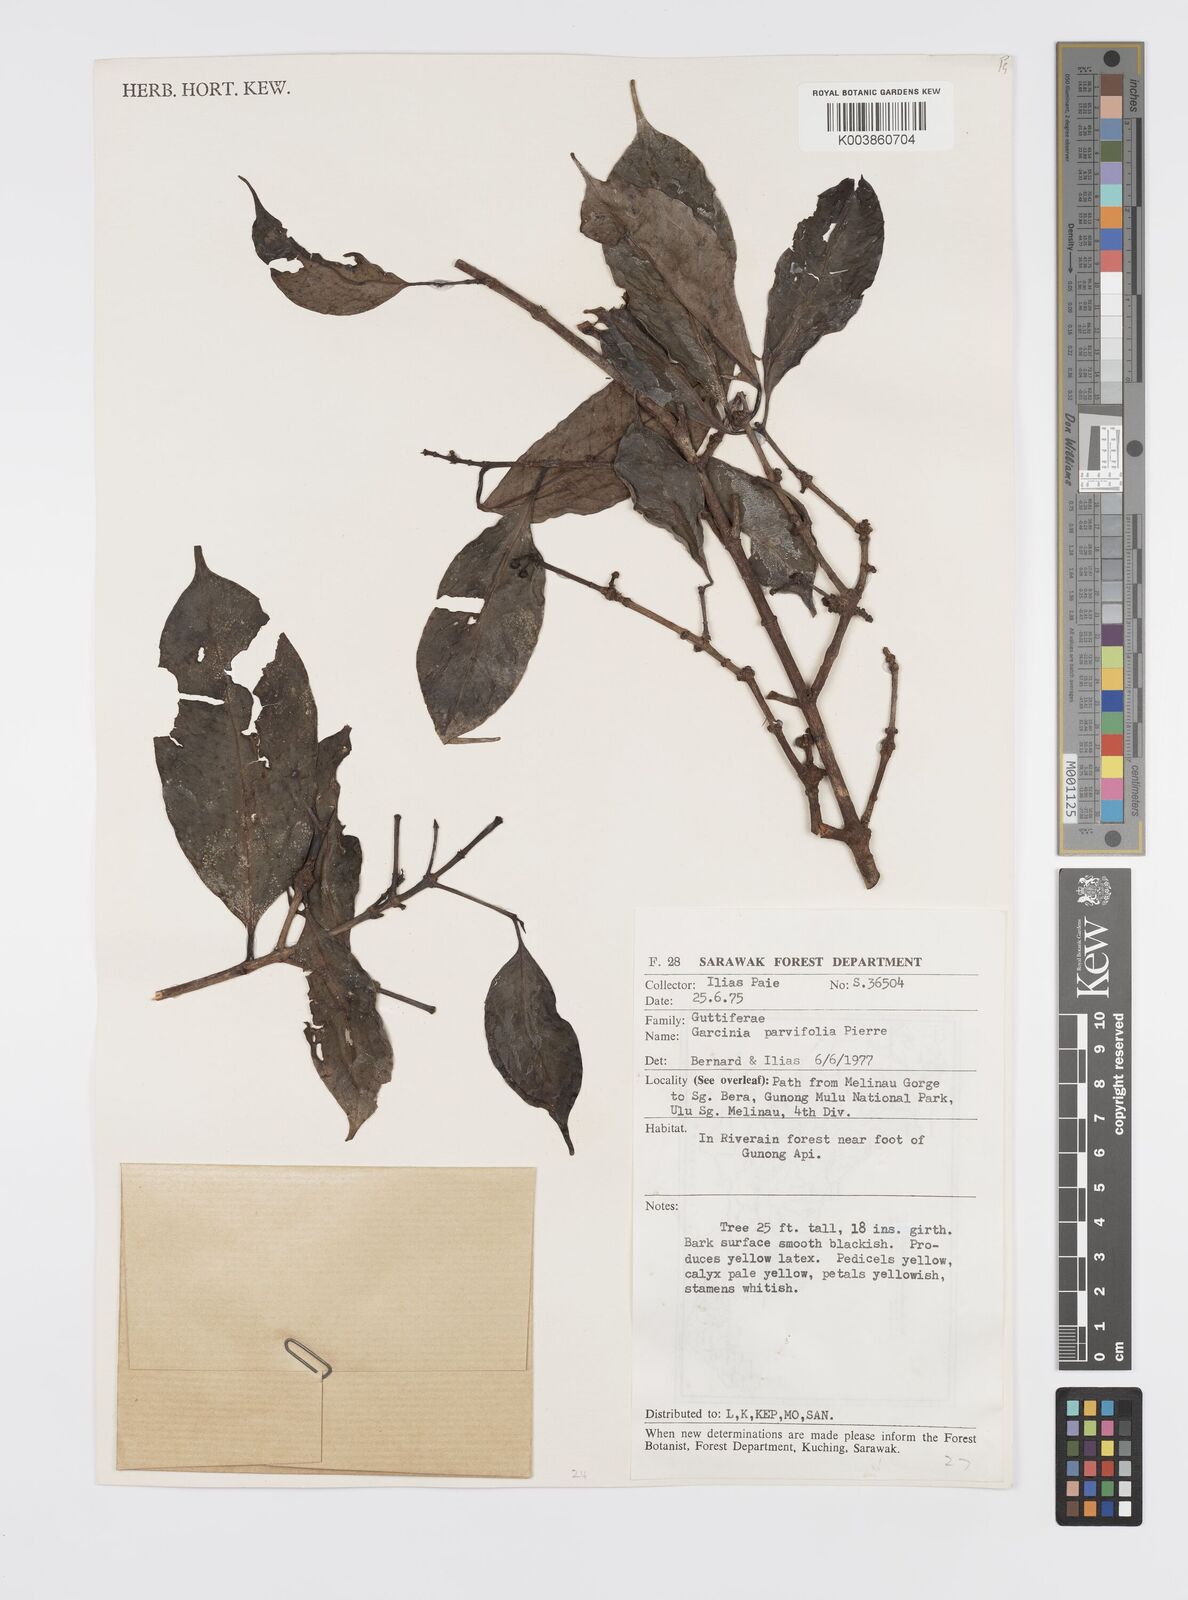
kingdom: Plantae
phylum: Tracheophyta
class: Magnoliopsida
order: Malpighiales
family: Clusiaceae
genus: Garcinia
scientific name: Garcinia parvifolia
